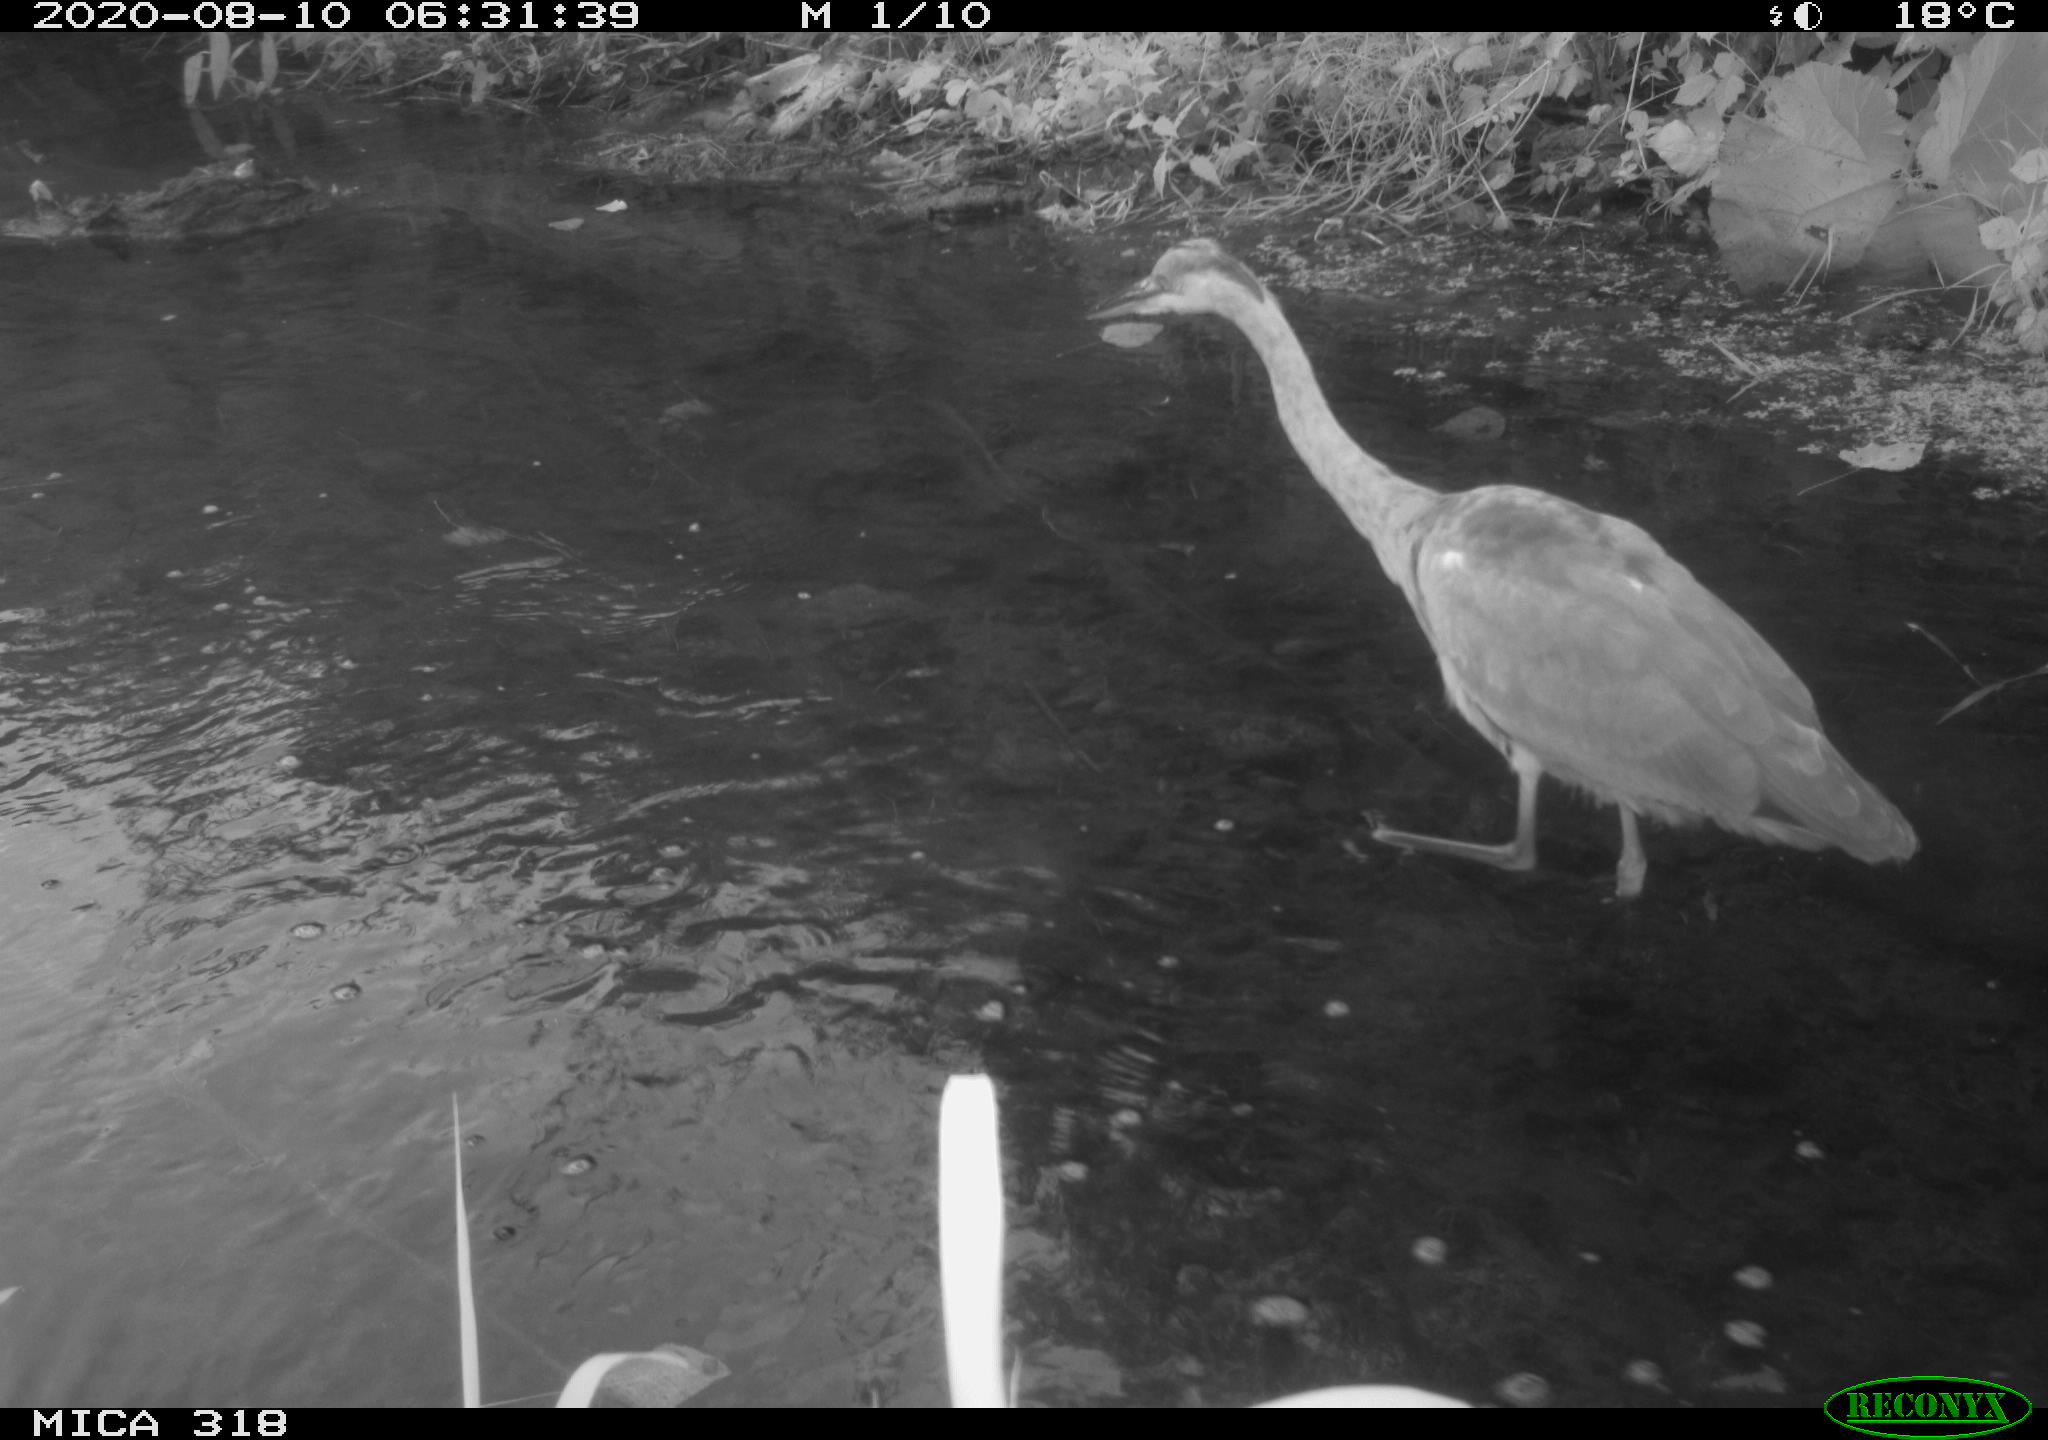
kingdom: Animalia
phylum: Chordata
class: Aves
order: Pelecaniformes
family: Ardeidae
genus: Ardea
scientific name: Ardea cinerea
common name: Grey heron
